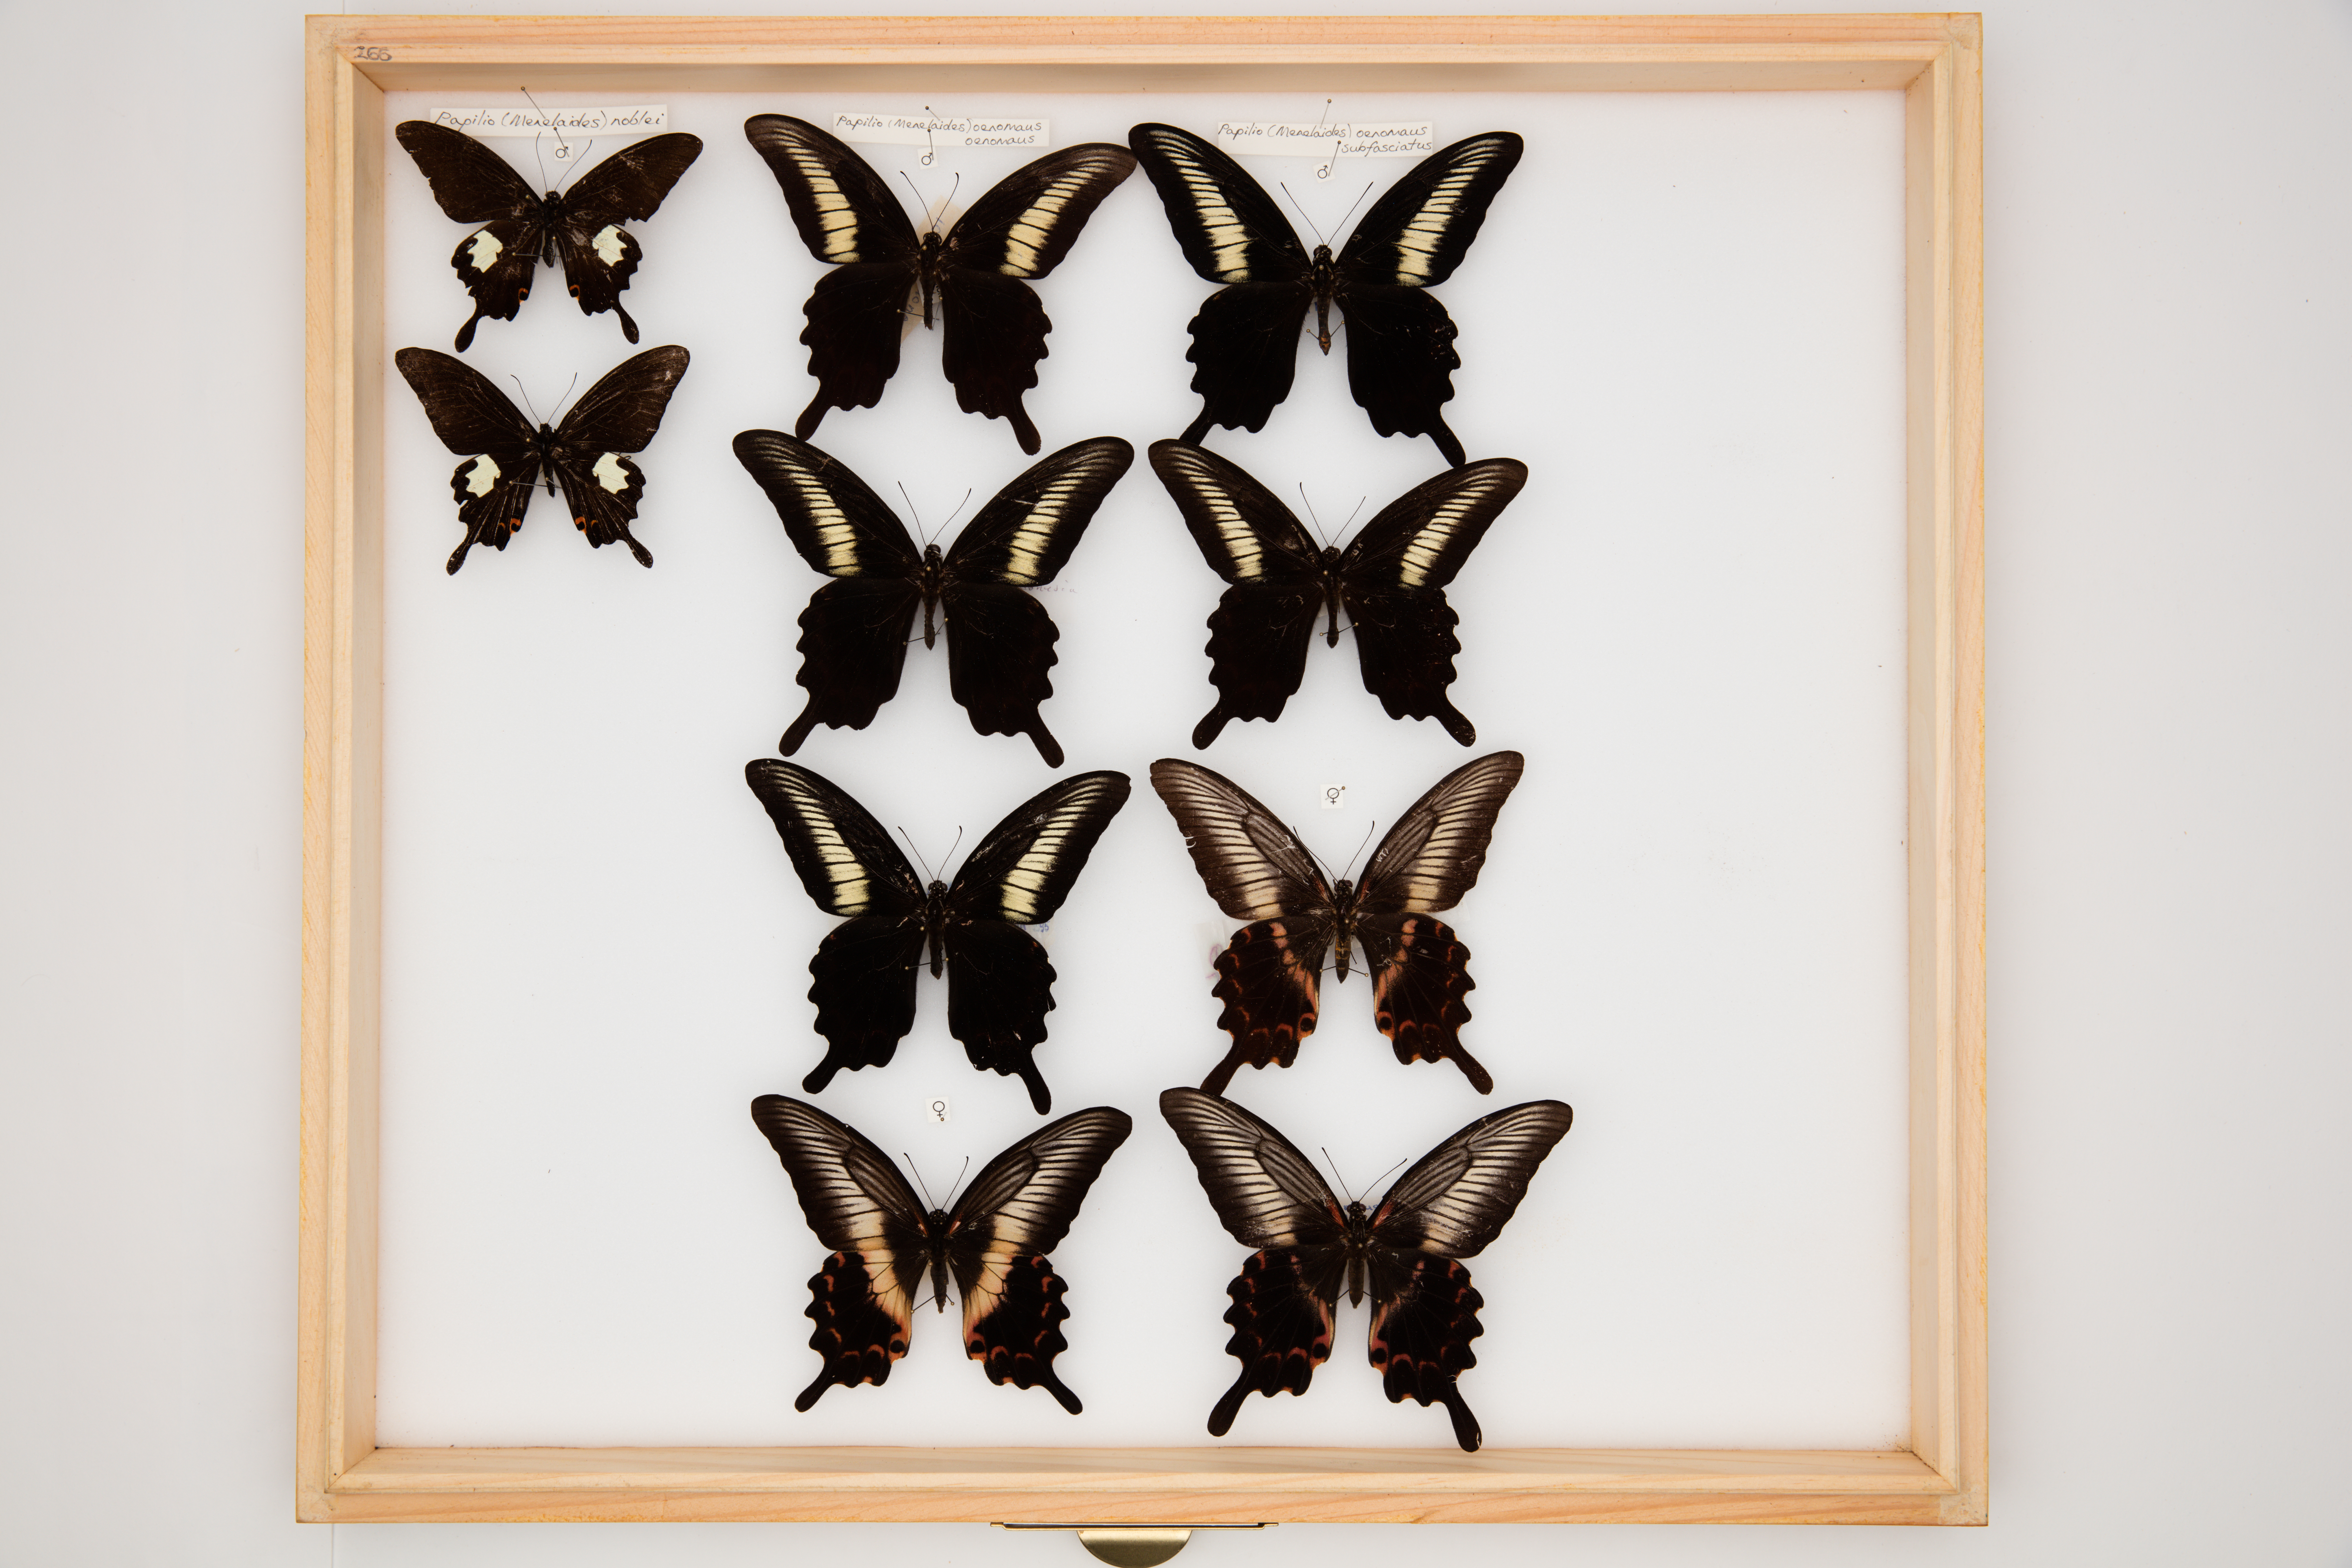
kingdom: Animalia
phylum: Arthropoda
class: Insecta
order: Lepidoptera
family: Papilionidae
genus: Papilio
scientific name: Papilio noblei
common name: Noble's helen
